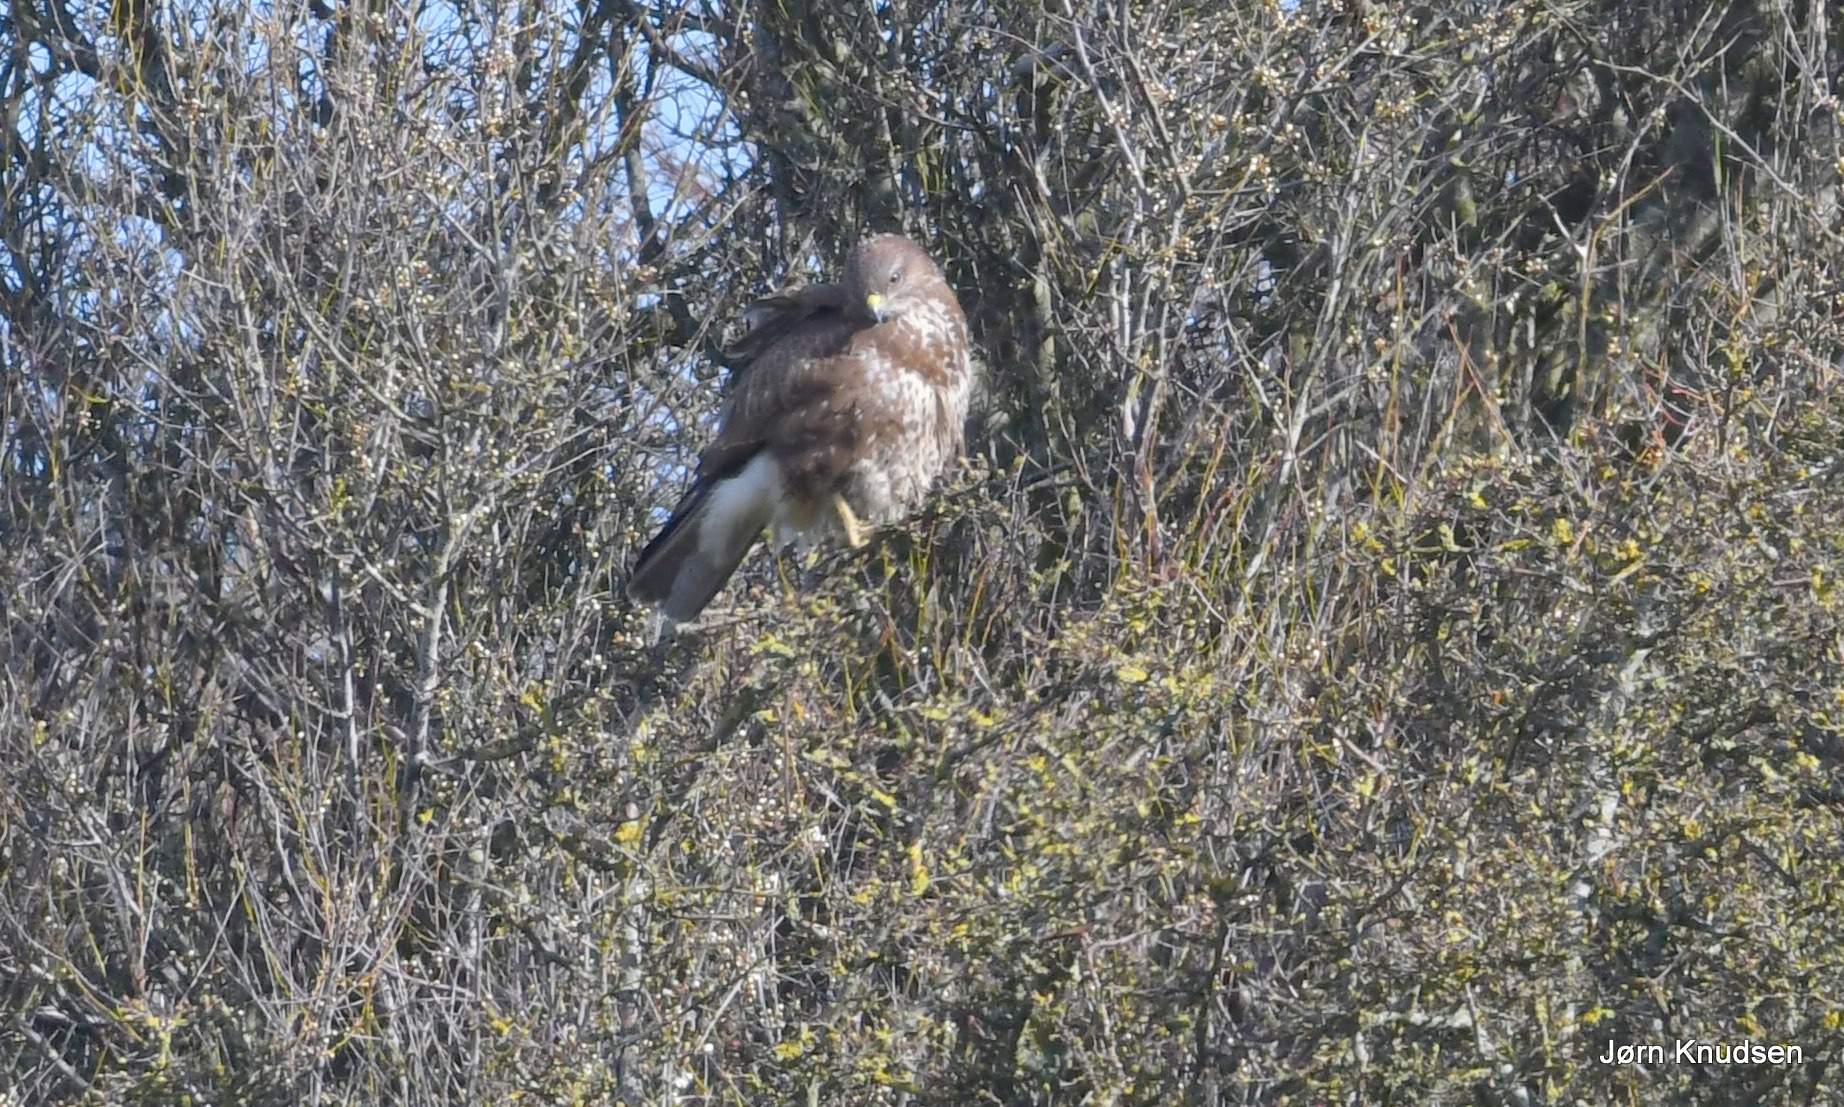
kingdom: Animalia
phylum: Chordata
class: Aves
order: Accipitriformes
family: Accipitridae
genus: Buteo
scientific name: Buteo buteo
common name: Musvåge
